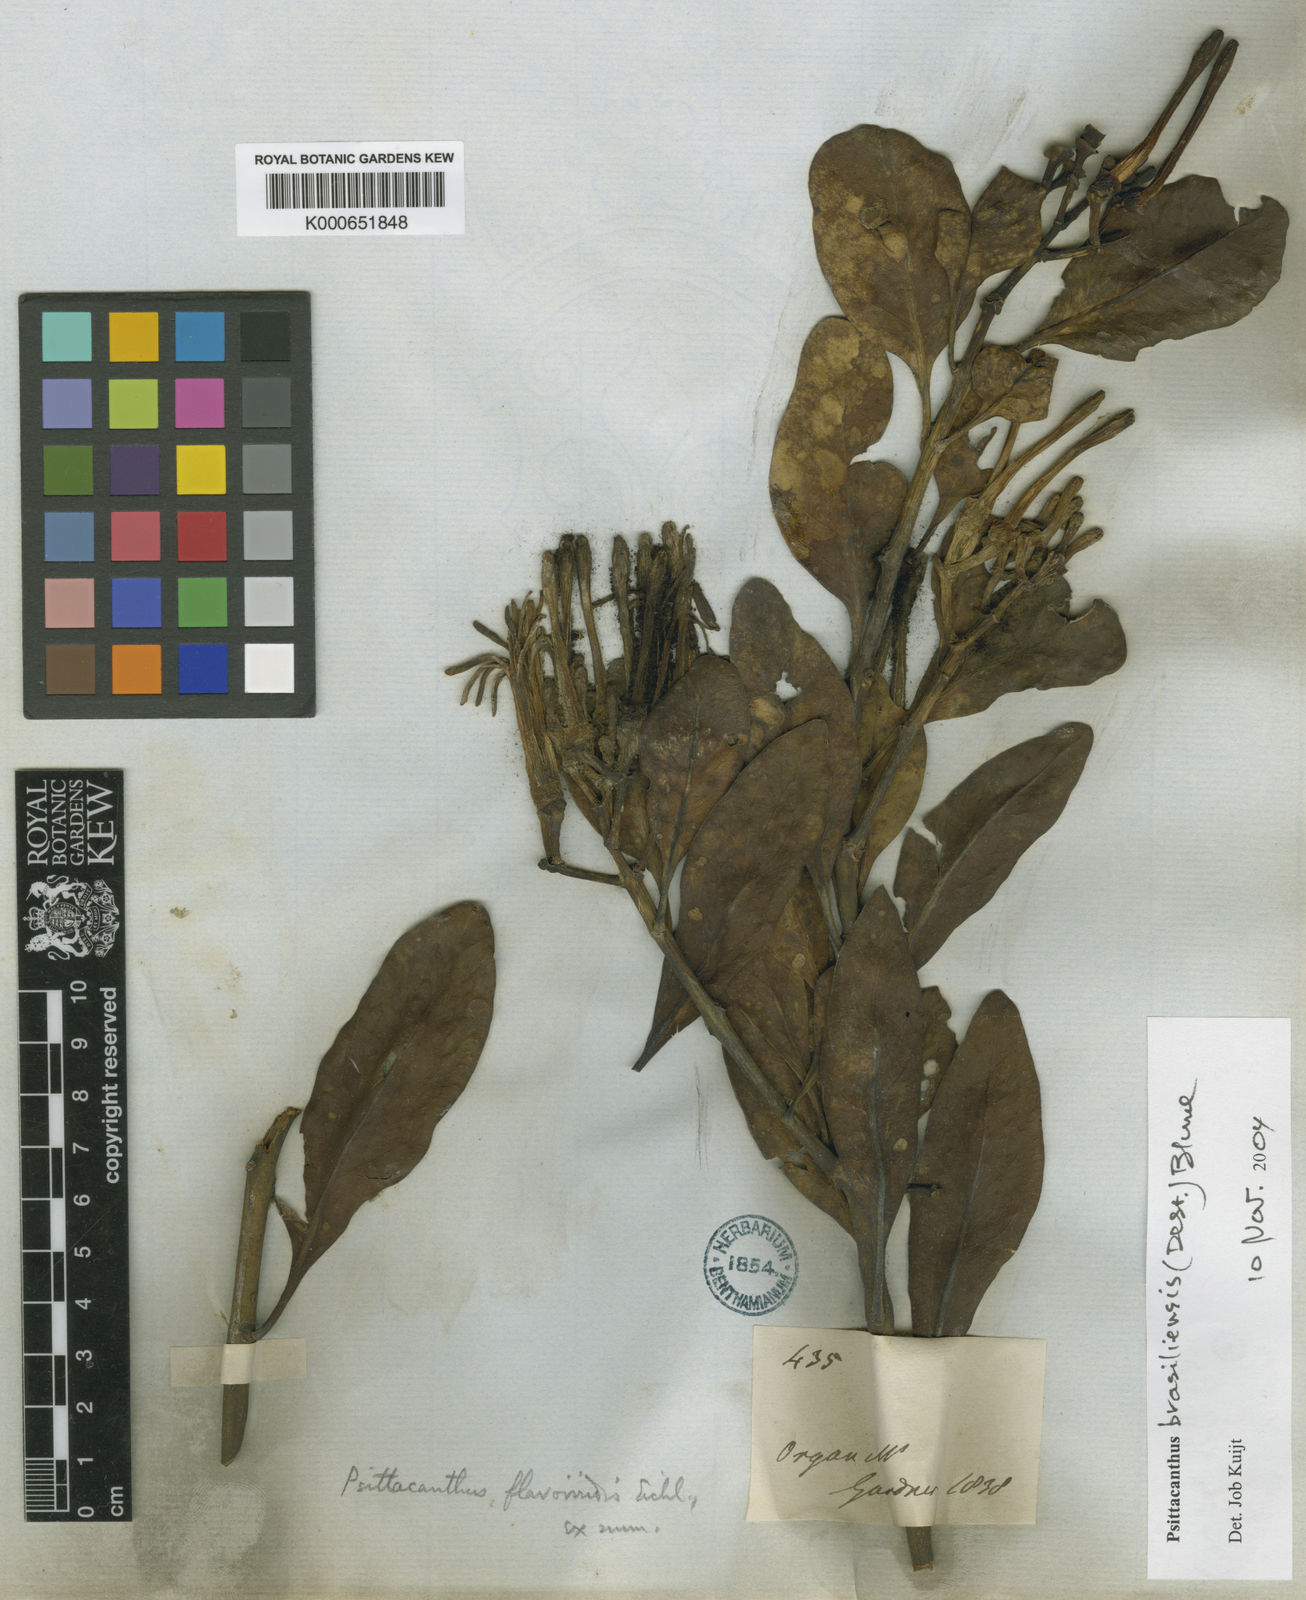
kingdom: Plantae
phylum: Tracheophyta
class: Magnoliopsida
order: Santalales
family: Loranthaceae
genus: Psittacanthus
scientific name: Psittacanthus brasiliensis
